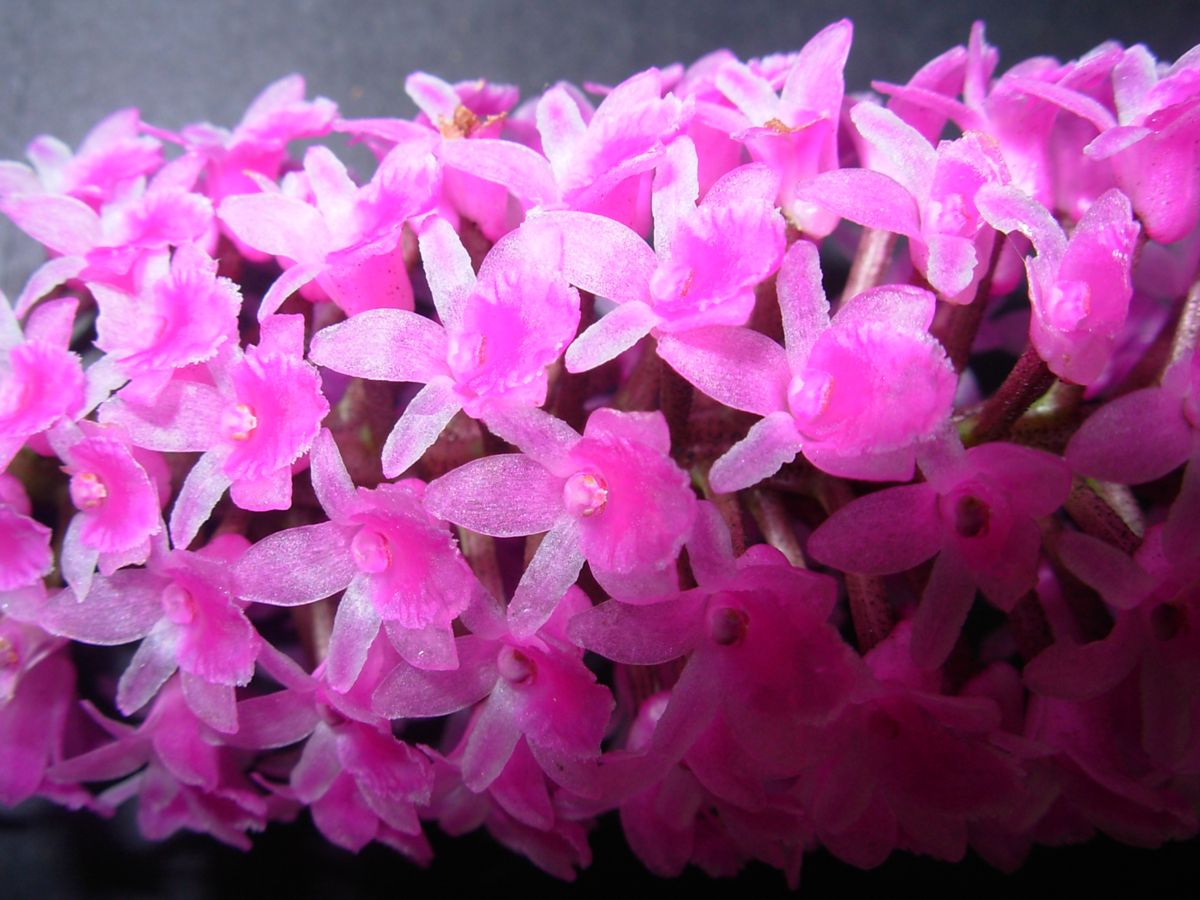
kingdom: Plantae
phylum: Tracheophyta
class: Liliopsida
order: Asparagales
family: Orchidaceae
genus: Arpophyllum
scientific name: Arpophyllum giganteum
